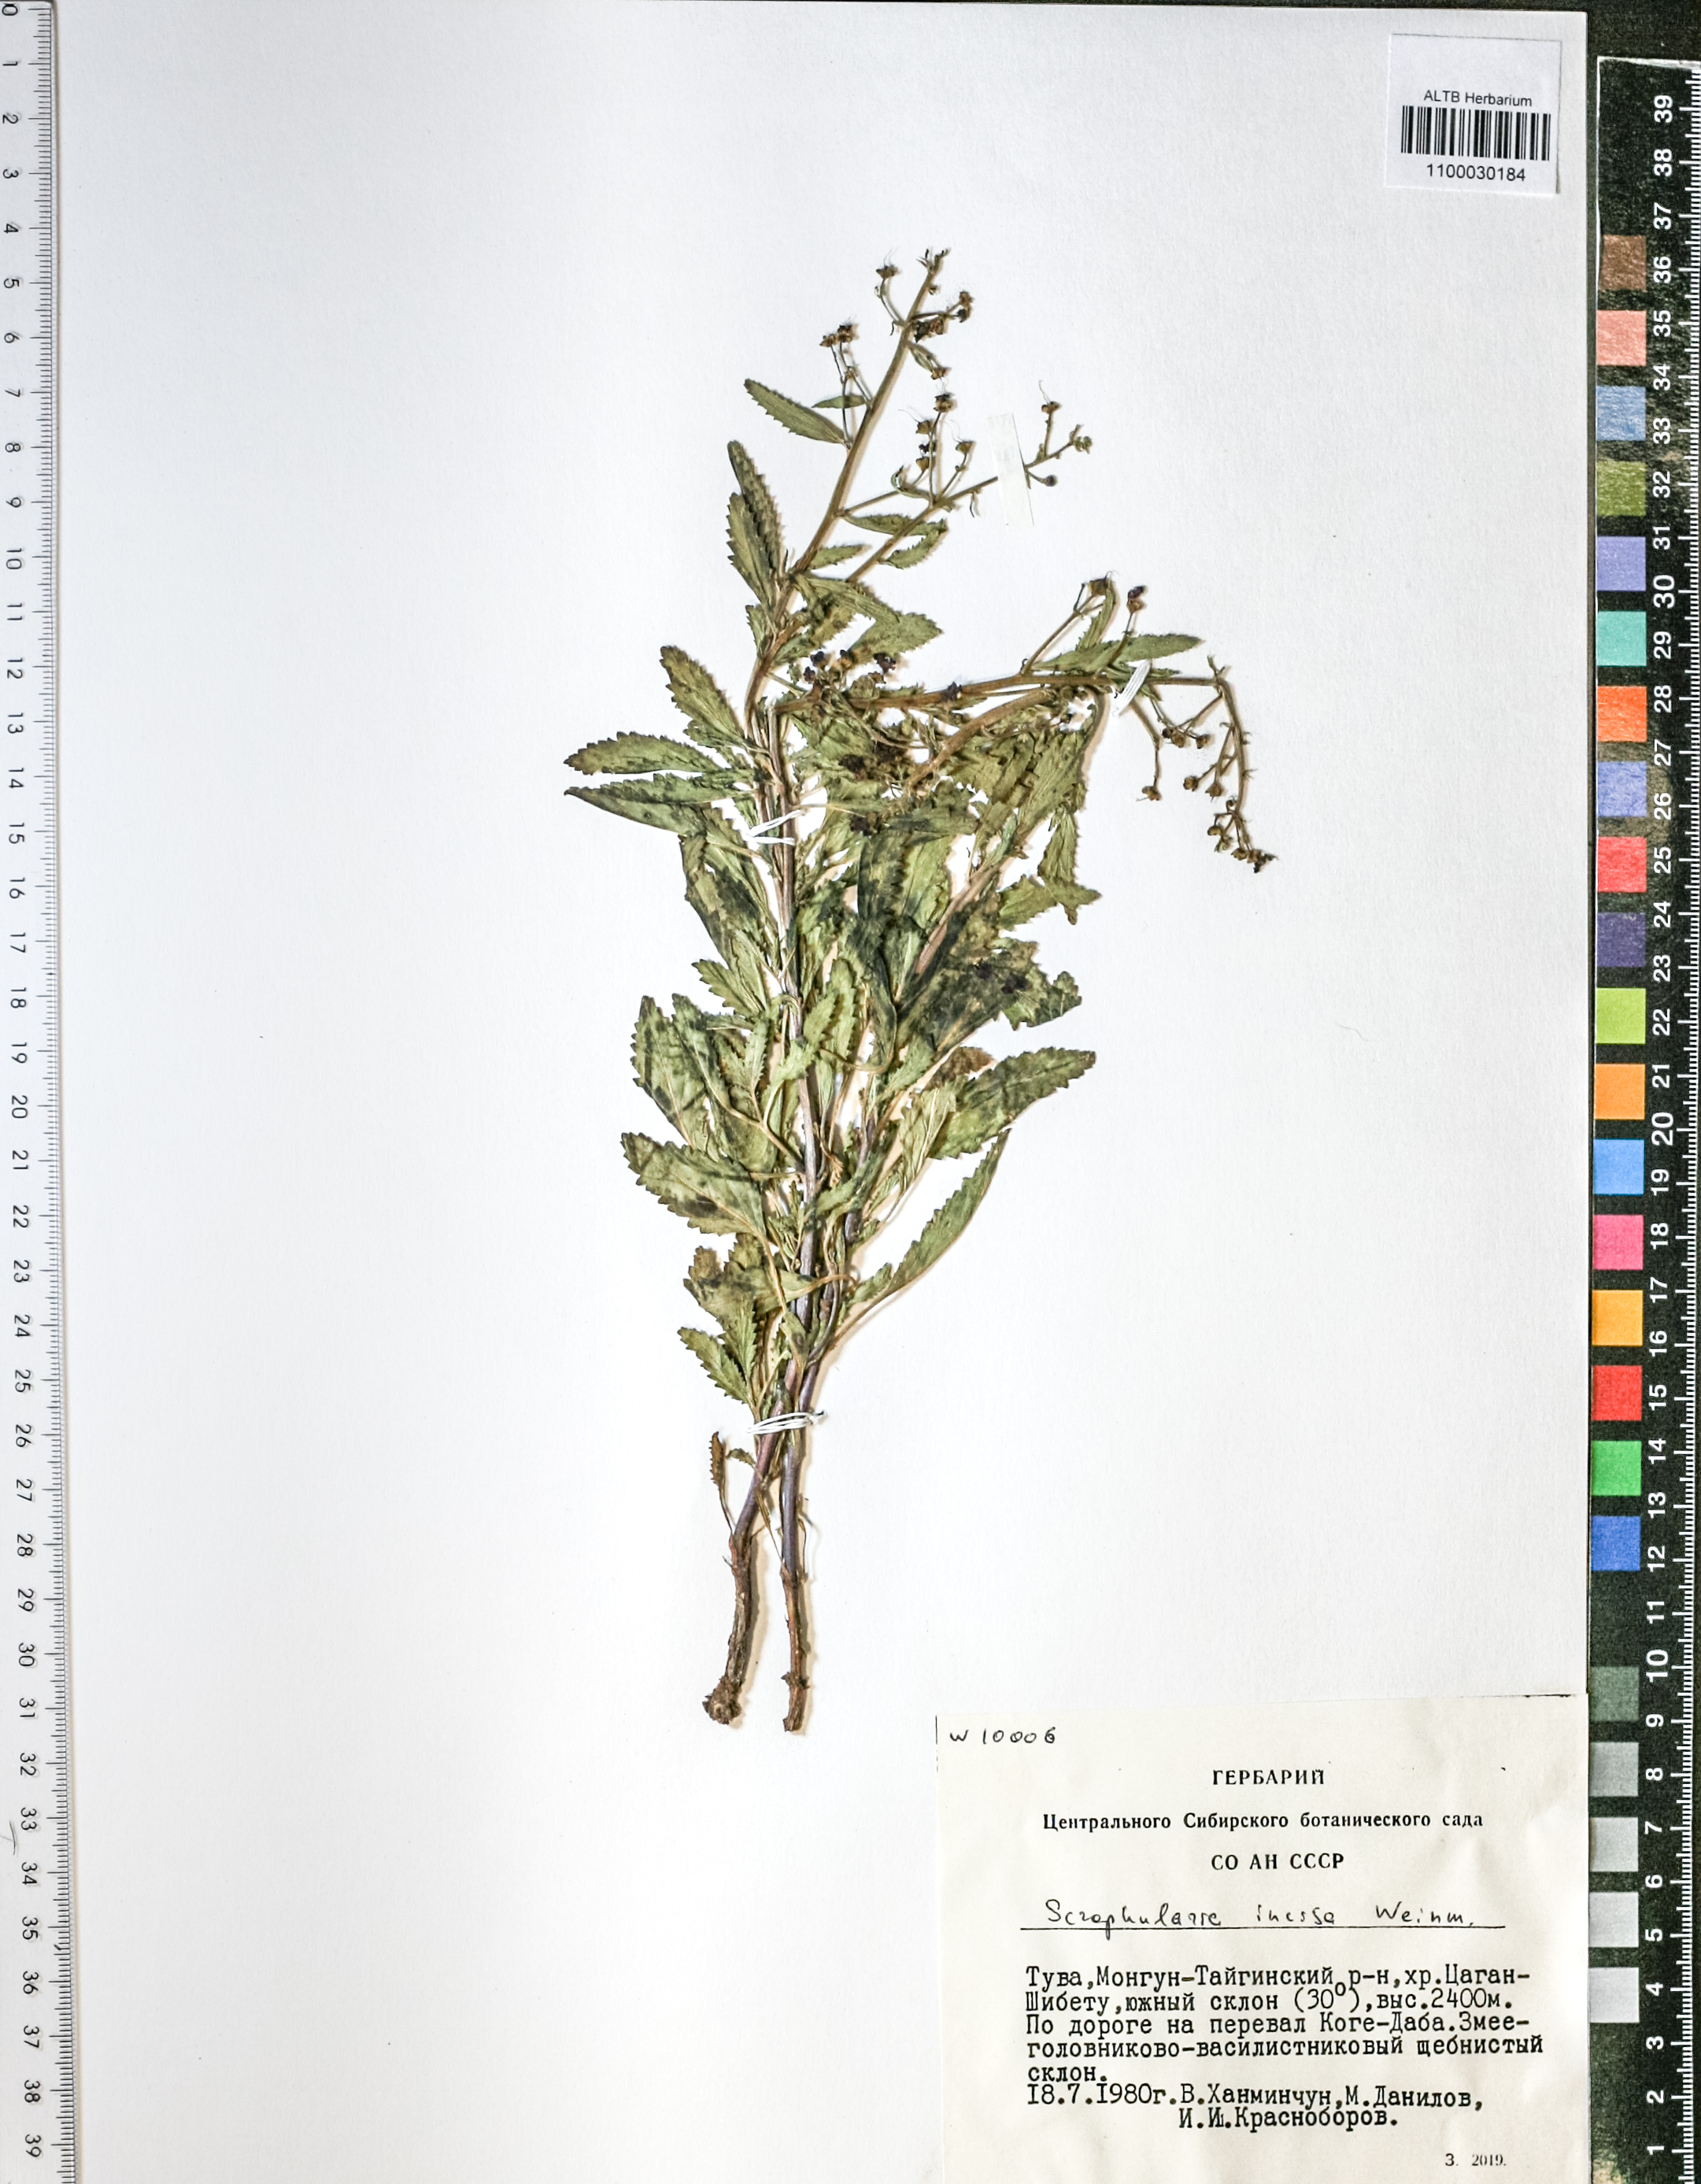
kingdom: Plantae
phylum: Tracheophyta
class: Magnoliopsida
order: Lamiales
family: Scrophulariaceae
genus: Scrophularia
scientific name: Scrophularia incisa
